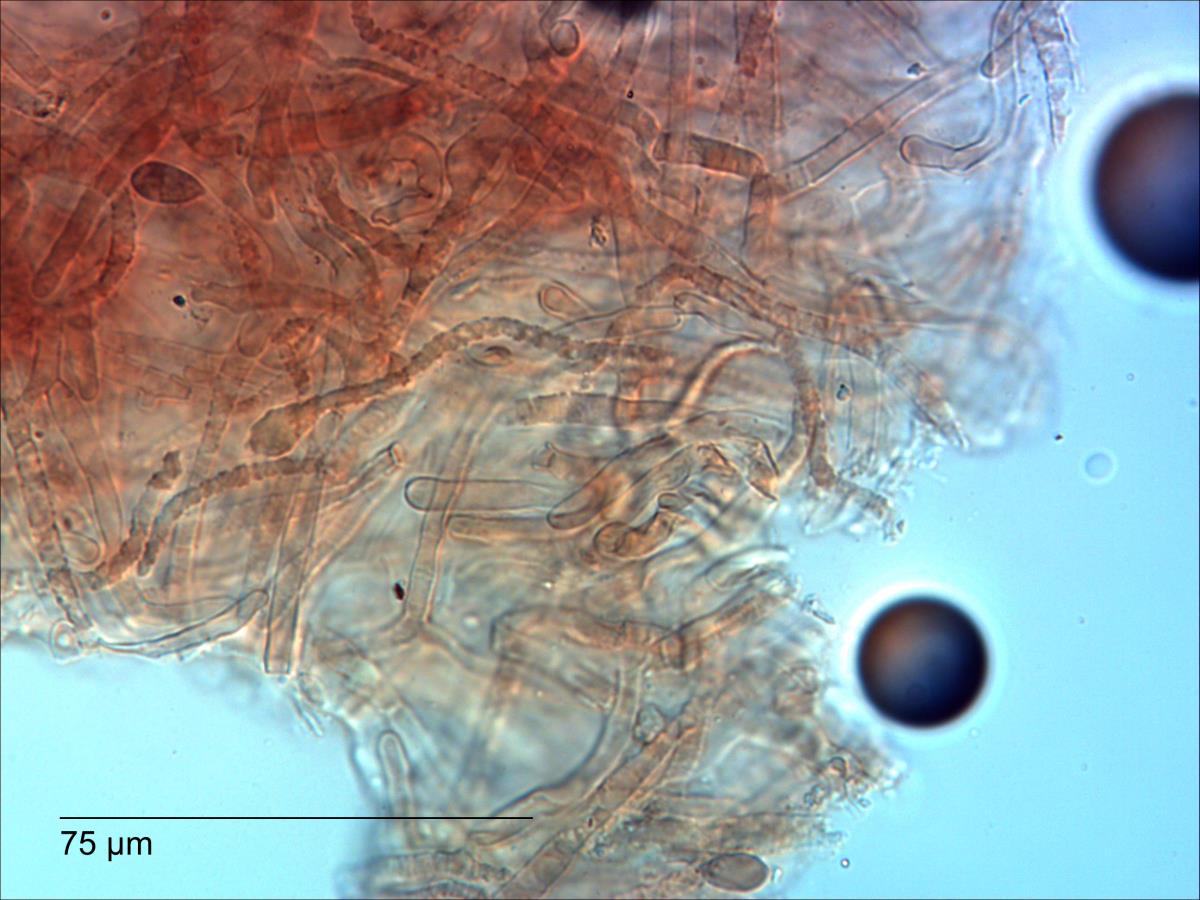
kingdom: Fungi
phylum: Basidiomycota
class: Agaricomycetes
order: Agaricales
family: Tricholomataceae
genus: Tricholoma
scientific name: Tricholoma elegans
